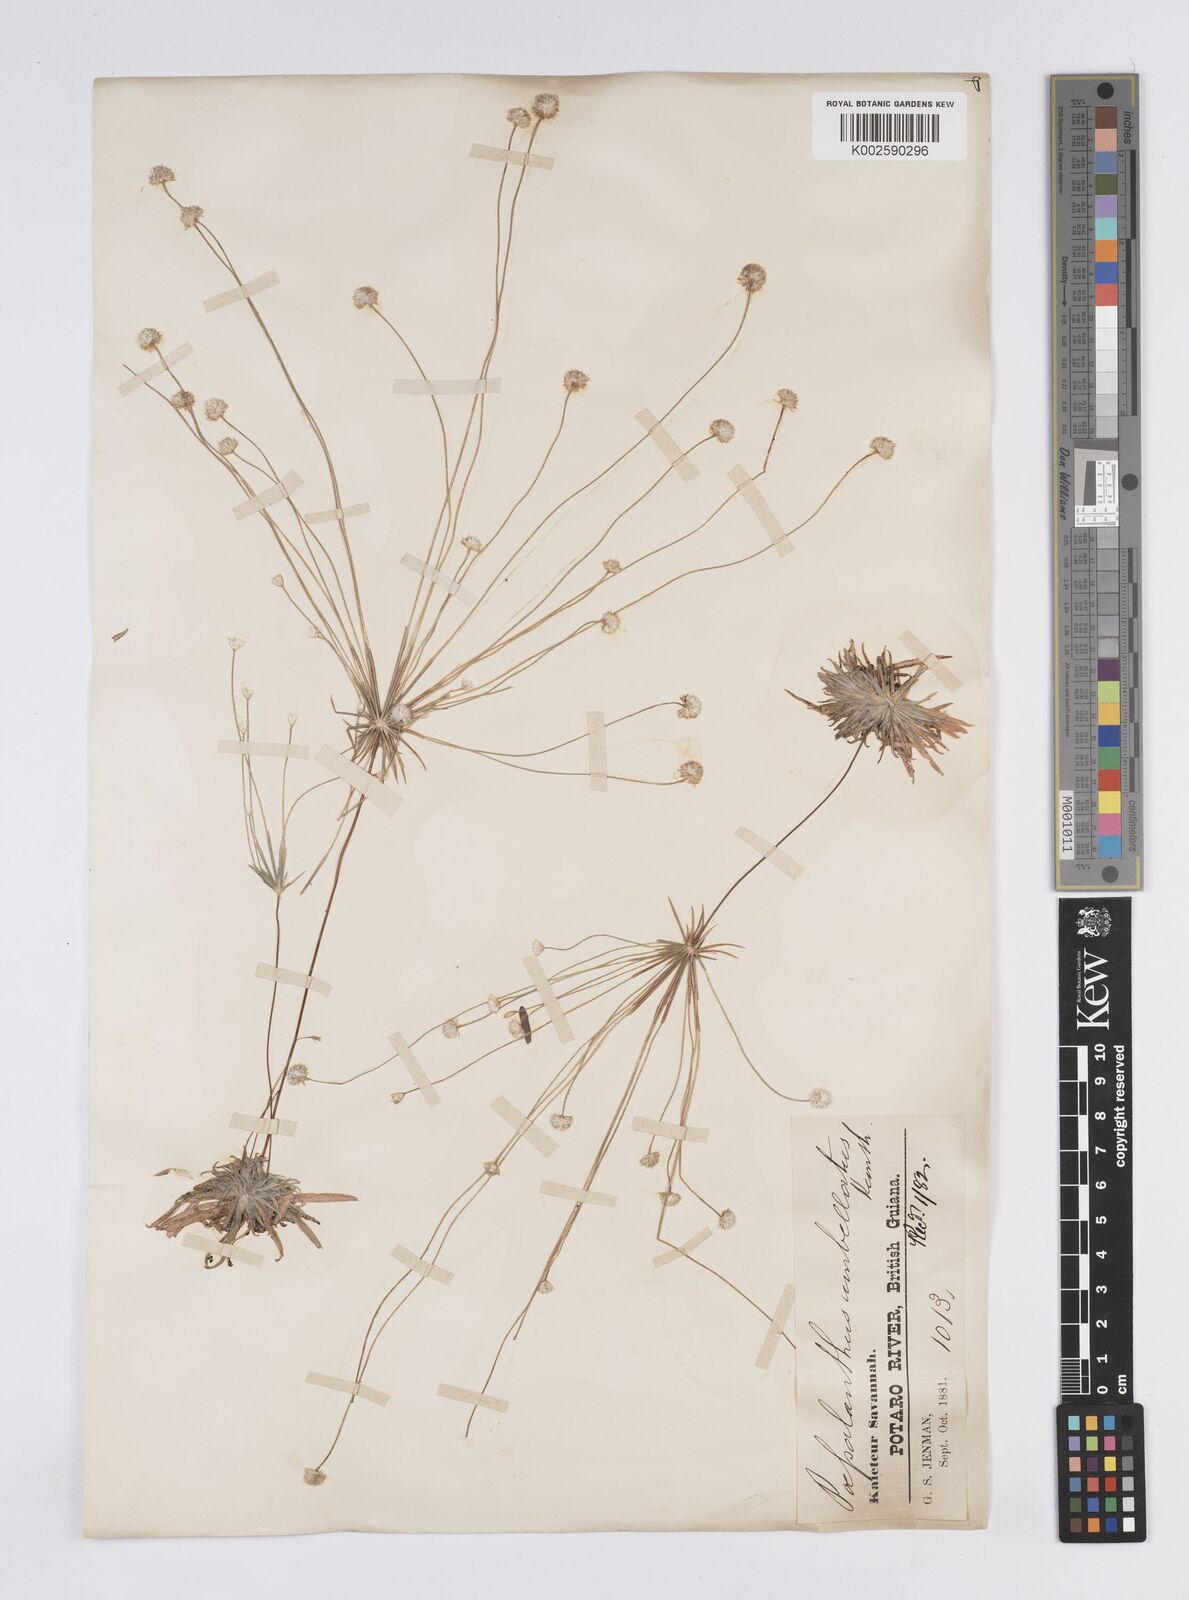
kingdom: Plantae
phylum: Tracheophyta
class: Liliopsida
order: Poales
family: Eriocaulaceae
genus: Syngonanthus
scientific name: Syngonanthus umbellatus
